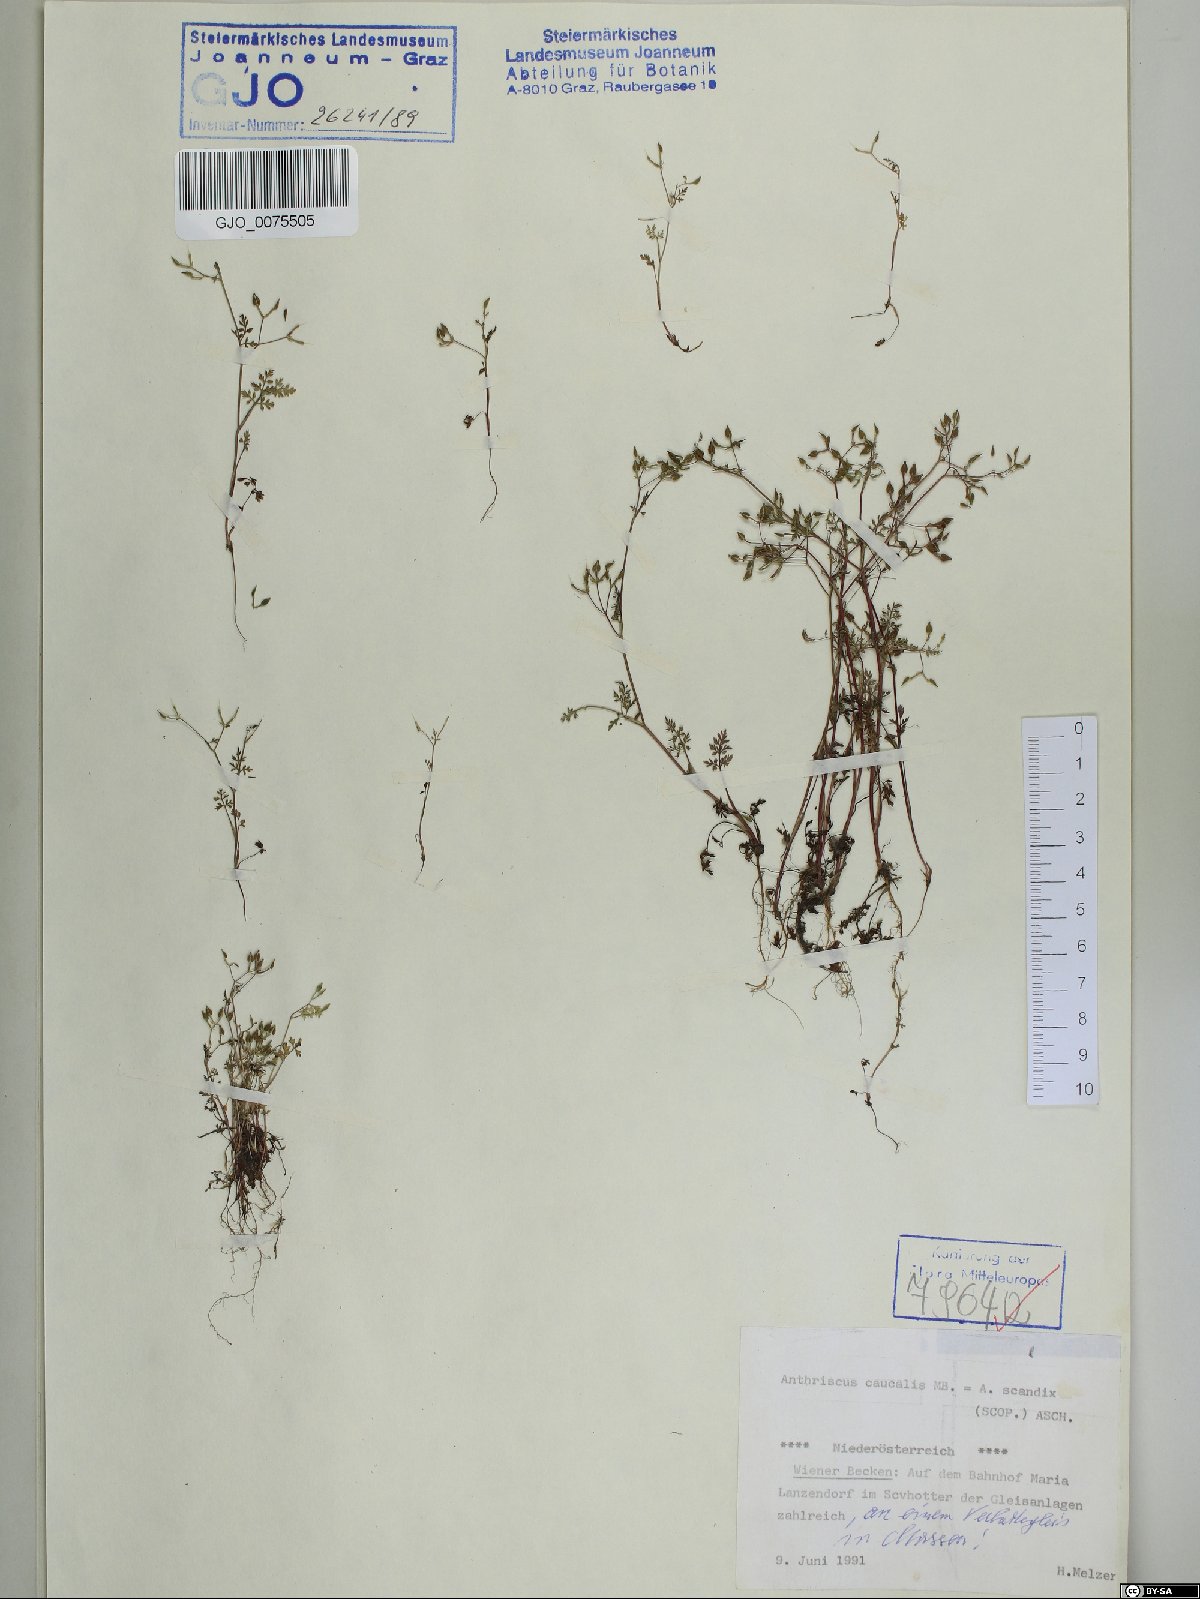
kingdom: Plantae
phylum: Tracheophyta
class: Magnoliopsida
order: Apiales
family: Apiaceae
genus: Anthriscus
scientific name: Anthriscus caucalis
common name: Bur chervil
